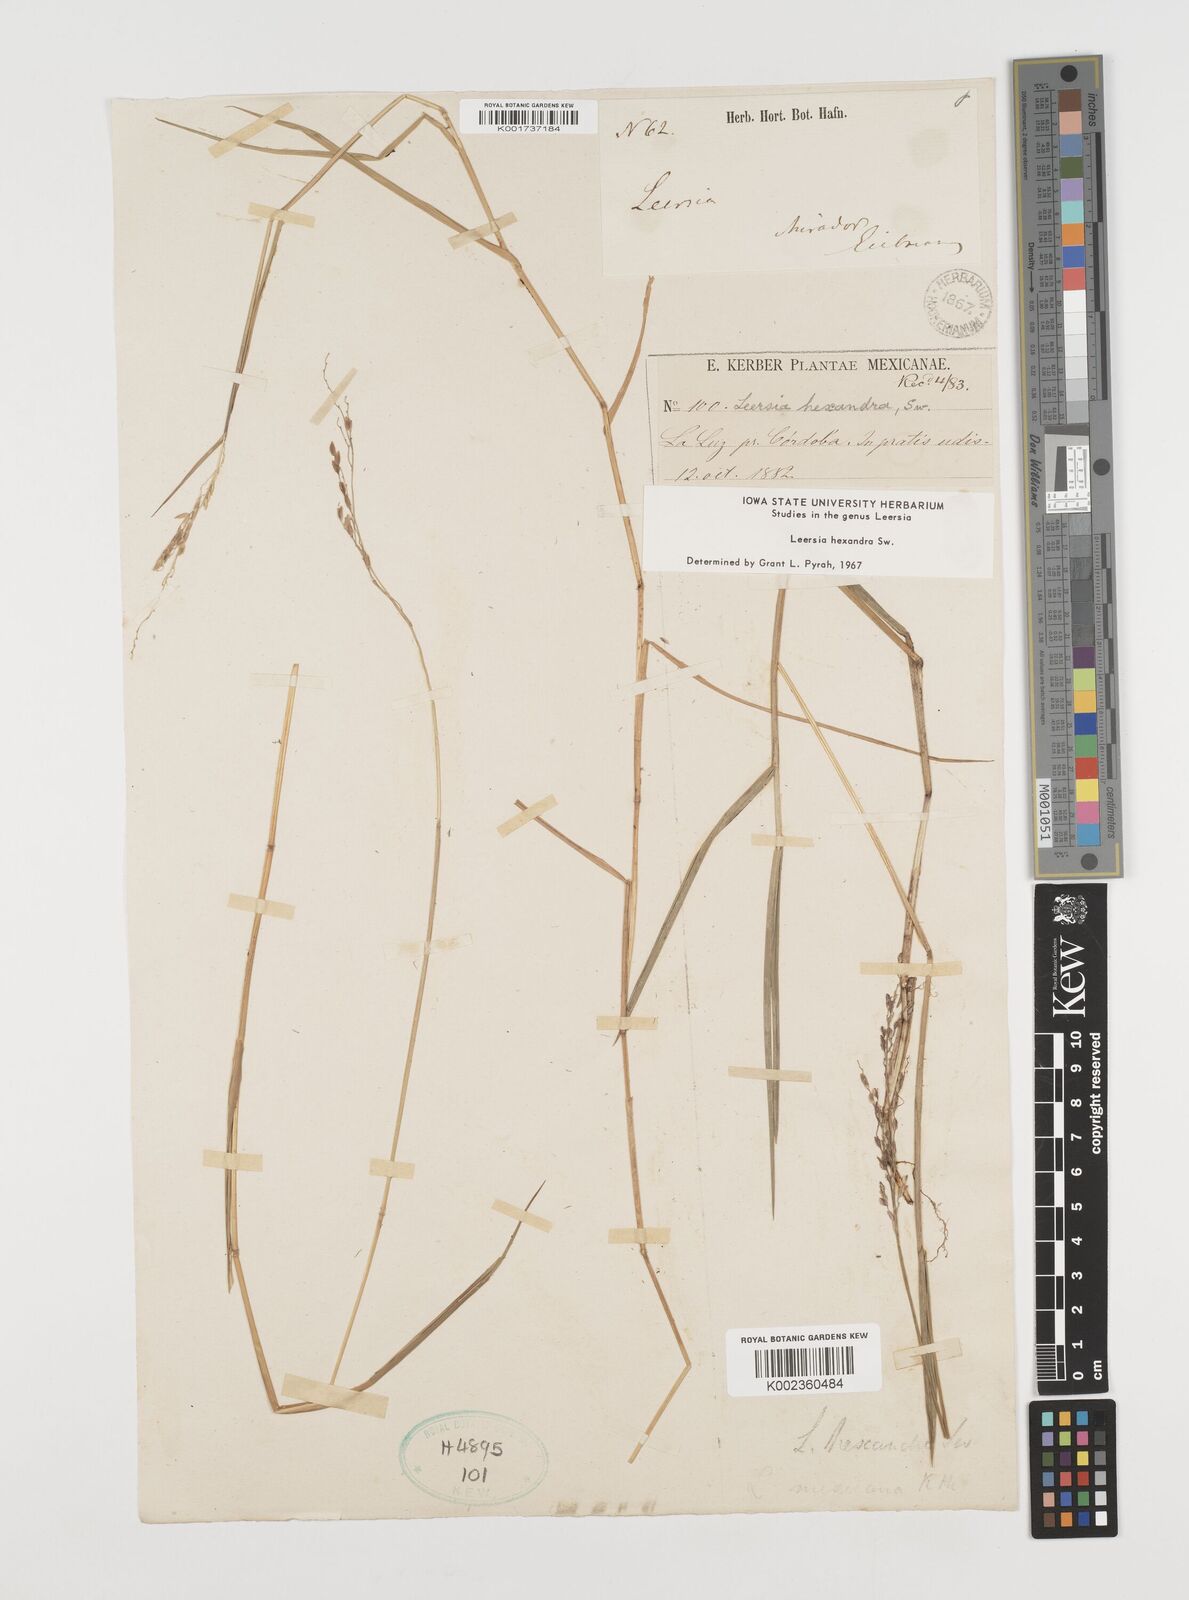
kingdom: Plantae
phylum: Tracheophyta
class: Liliopsida
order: Poales
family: Poaceae
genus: Leersia
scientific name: Leersia hexandra
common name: Southern cut grass
